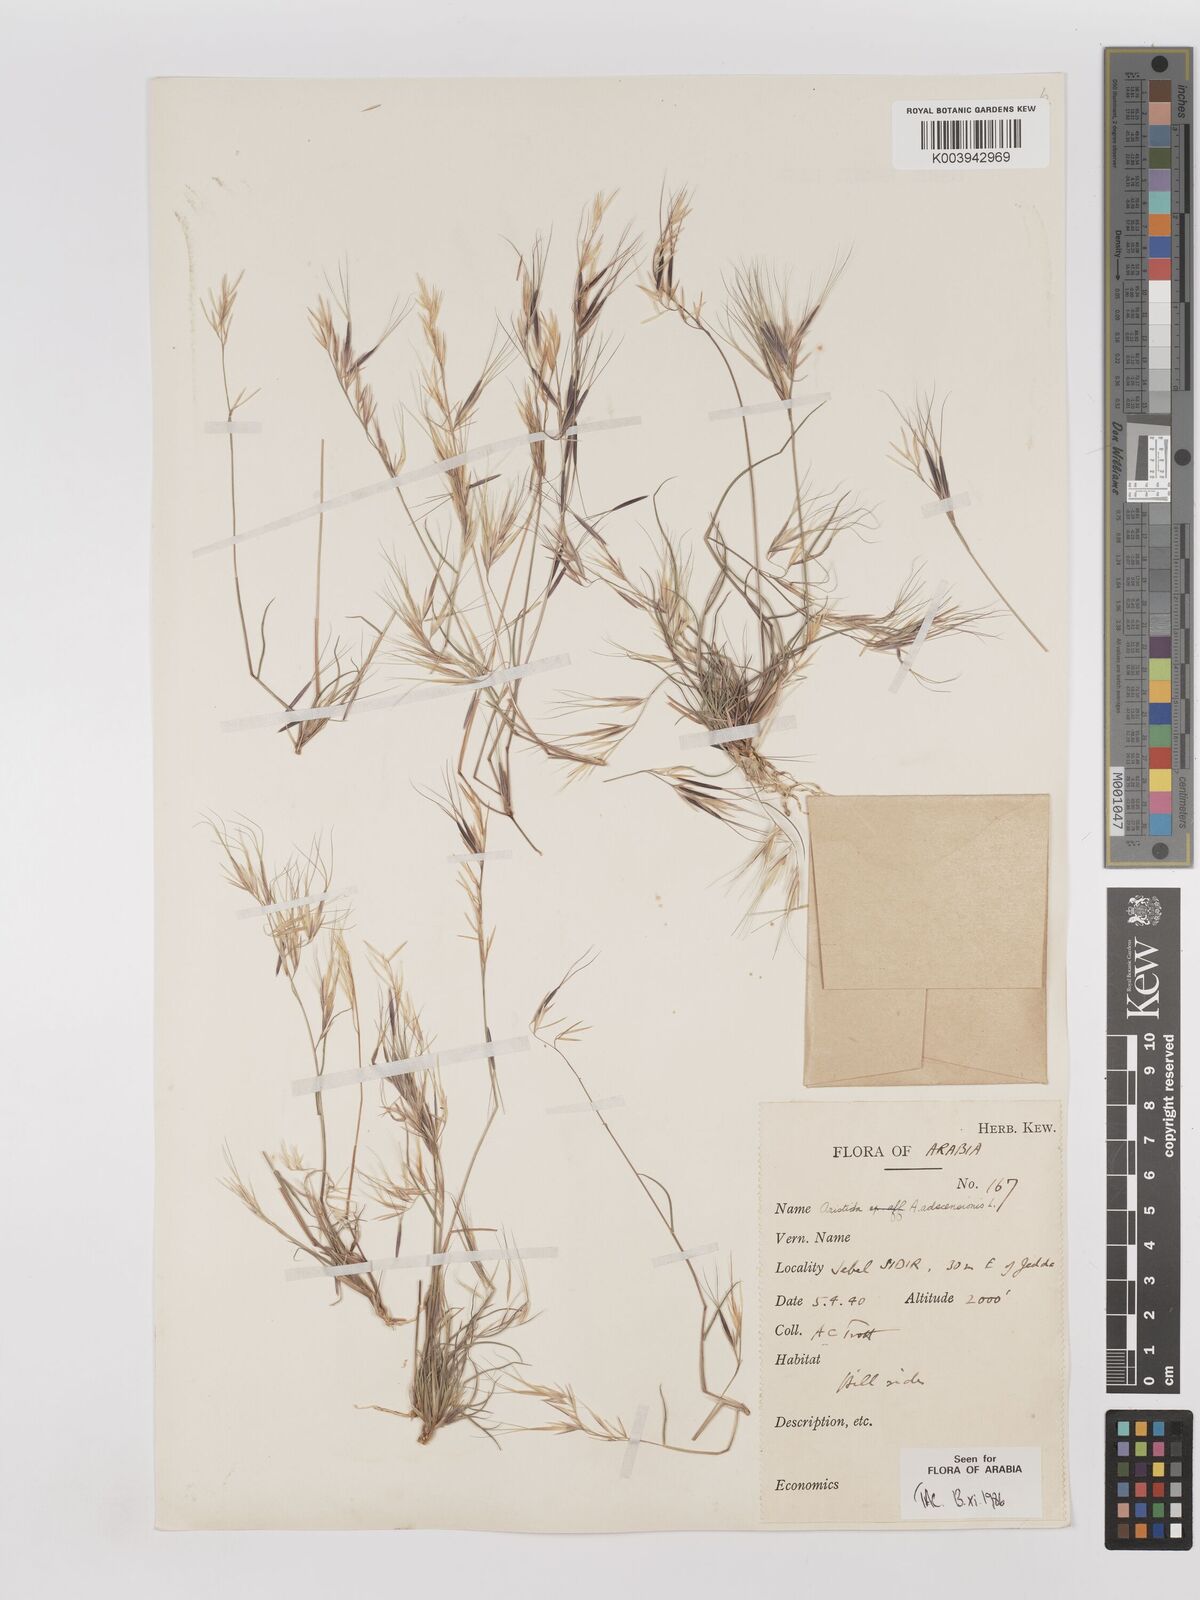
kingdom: Plantae
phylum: Tracheophyta
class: Liliopsida
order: Poales
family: Poaceae
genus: Aristida
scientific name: Aristida adscensionis
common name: Sixweeks threeawn
